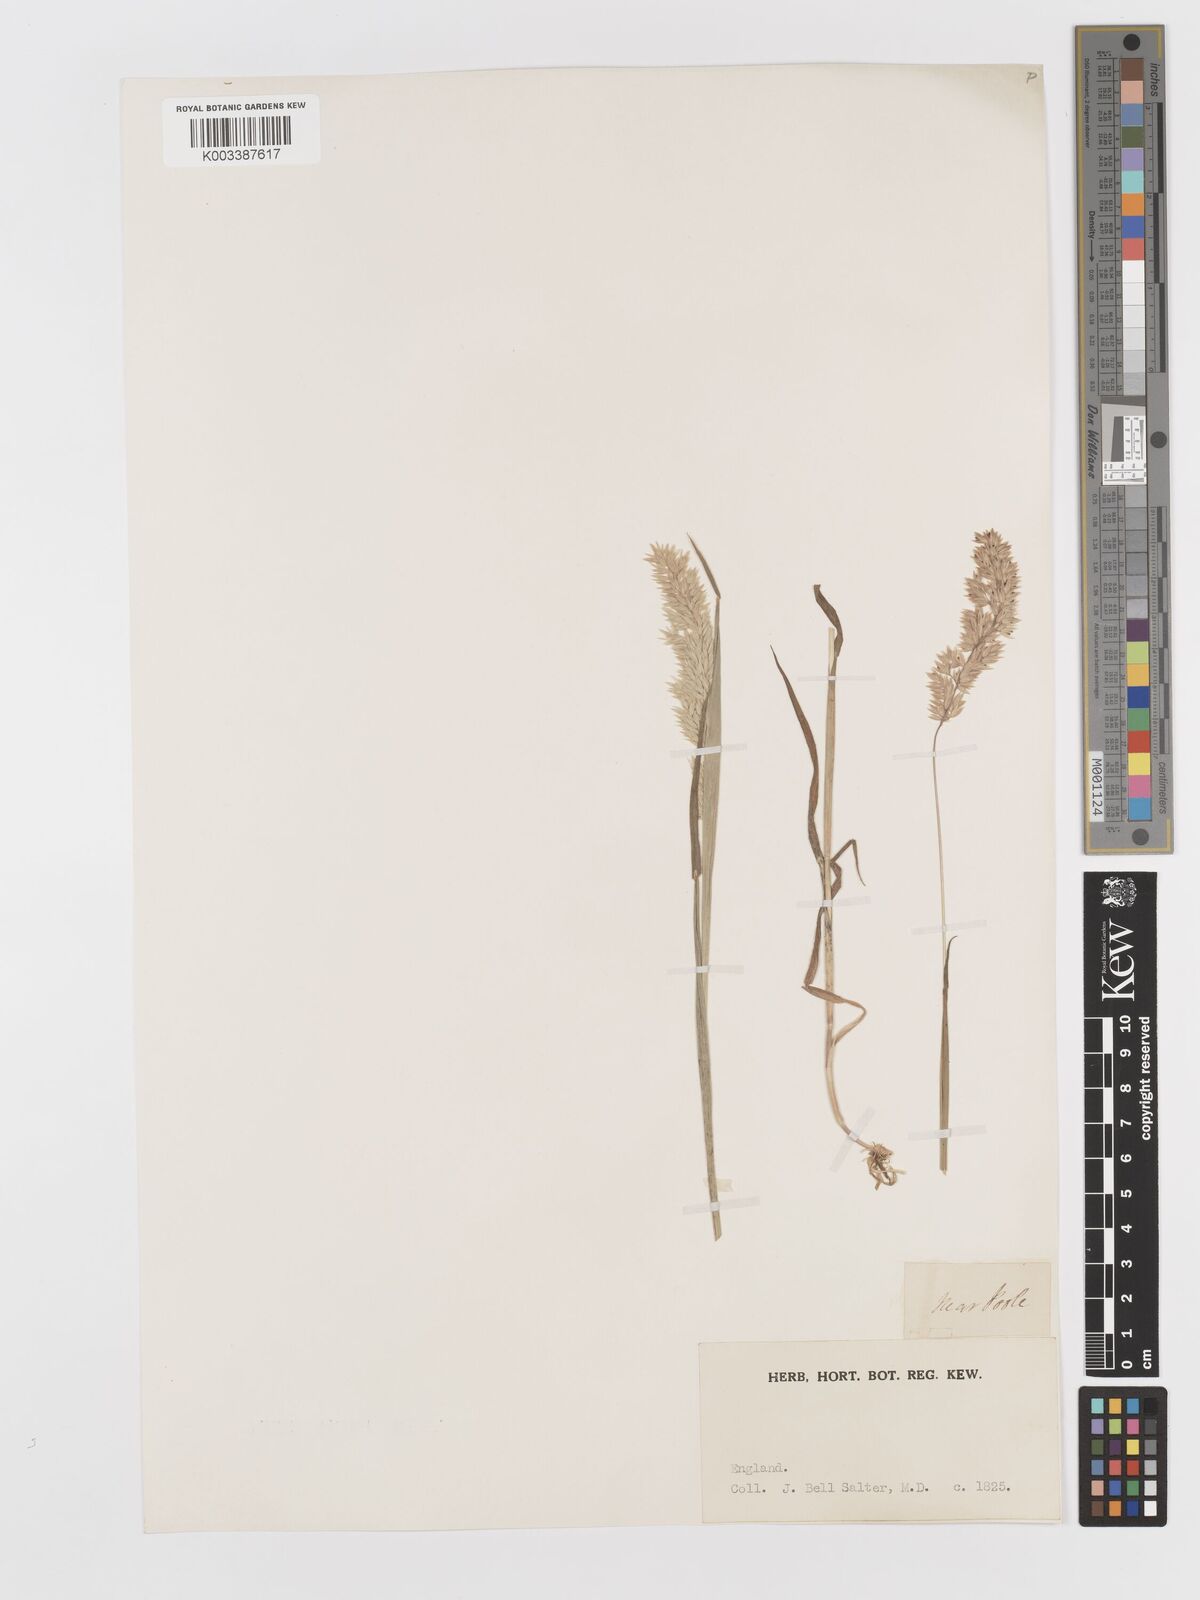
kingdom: Plantae
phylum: Tracheophyta
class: Liliopsida
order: Poales
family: Poaceae
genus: Holcus
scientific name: Holcus lanatus
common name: Yorkshire-fog
